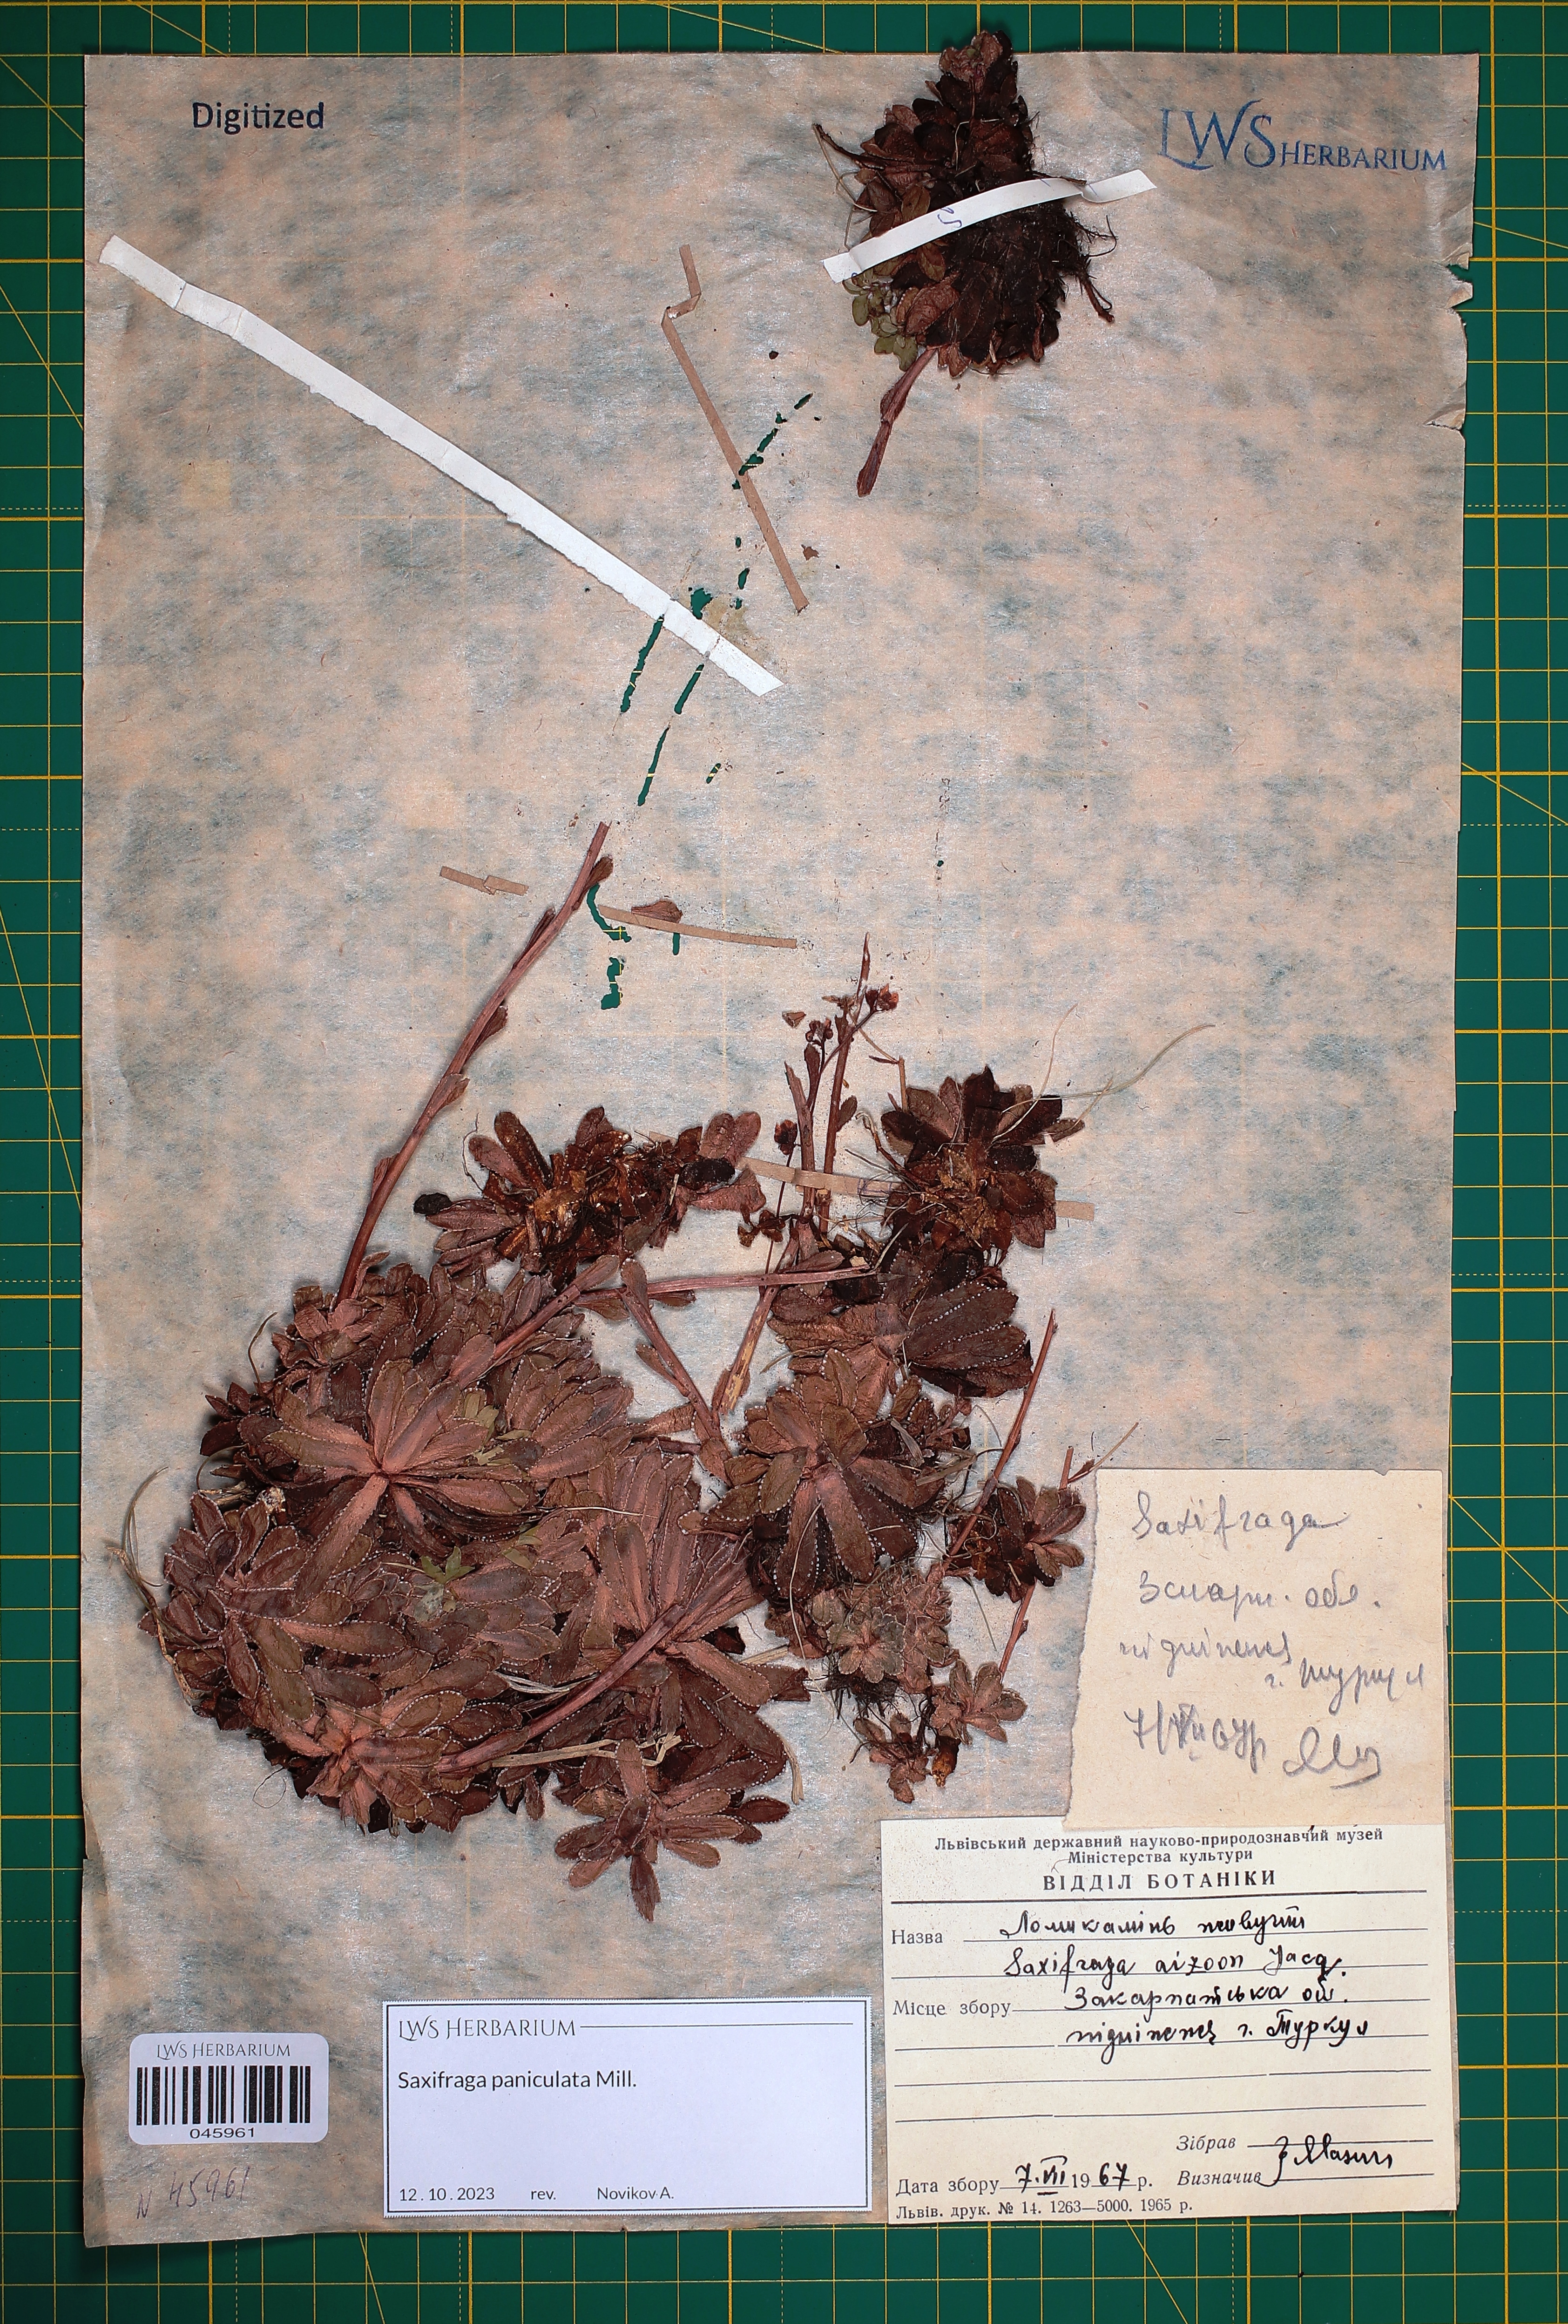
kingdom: Plantae
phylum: Tracheophyta
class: Magnoliopsida
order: Saxifragales
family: Saxifragaceae
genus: Saxifraga
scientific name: Saxifraga paniculata
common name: Livelong saxifrage
